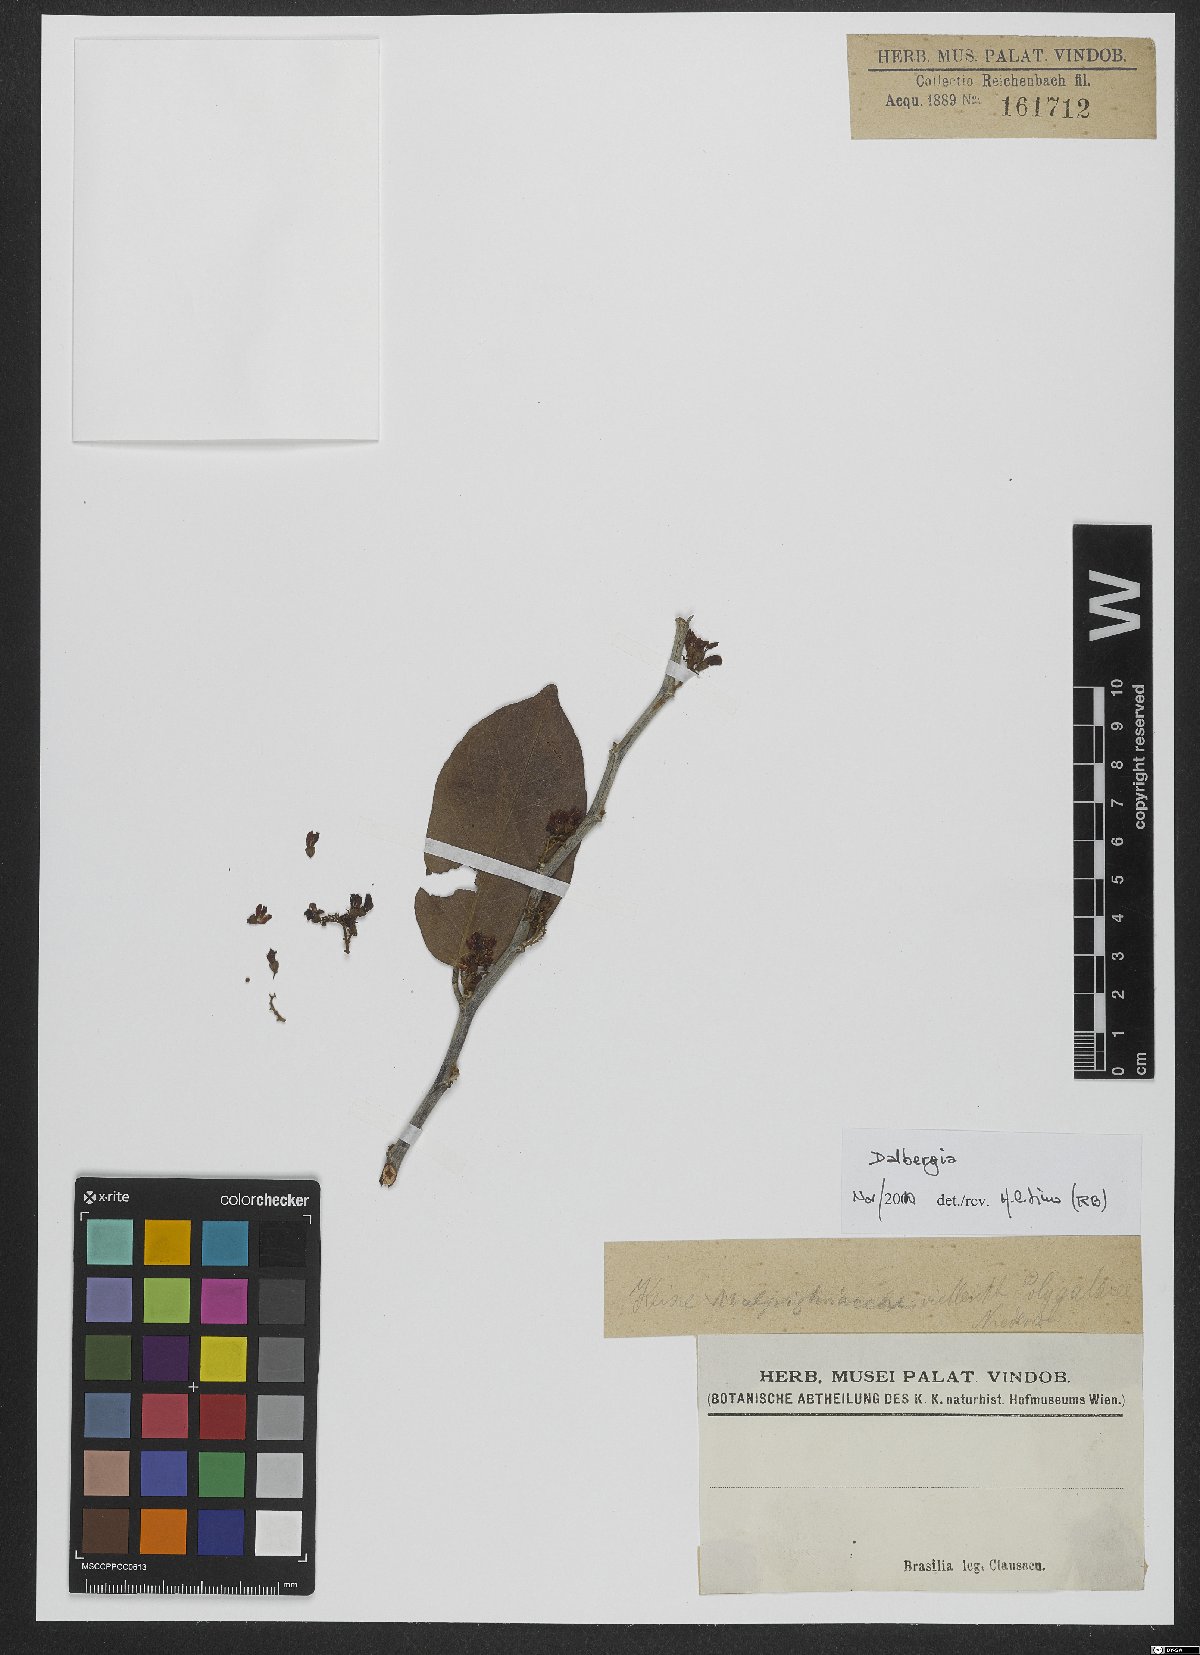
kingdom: Plantae
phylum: Tracheophyta
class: Magnoliopsida
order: Fabales
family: Fabaceae
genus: Dalbergia
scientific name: Dalbergia
